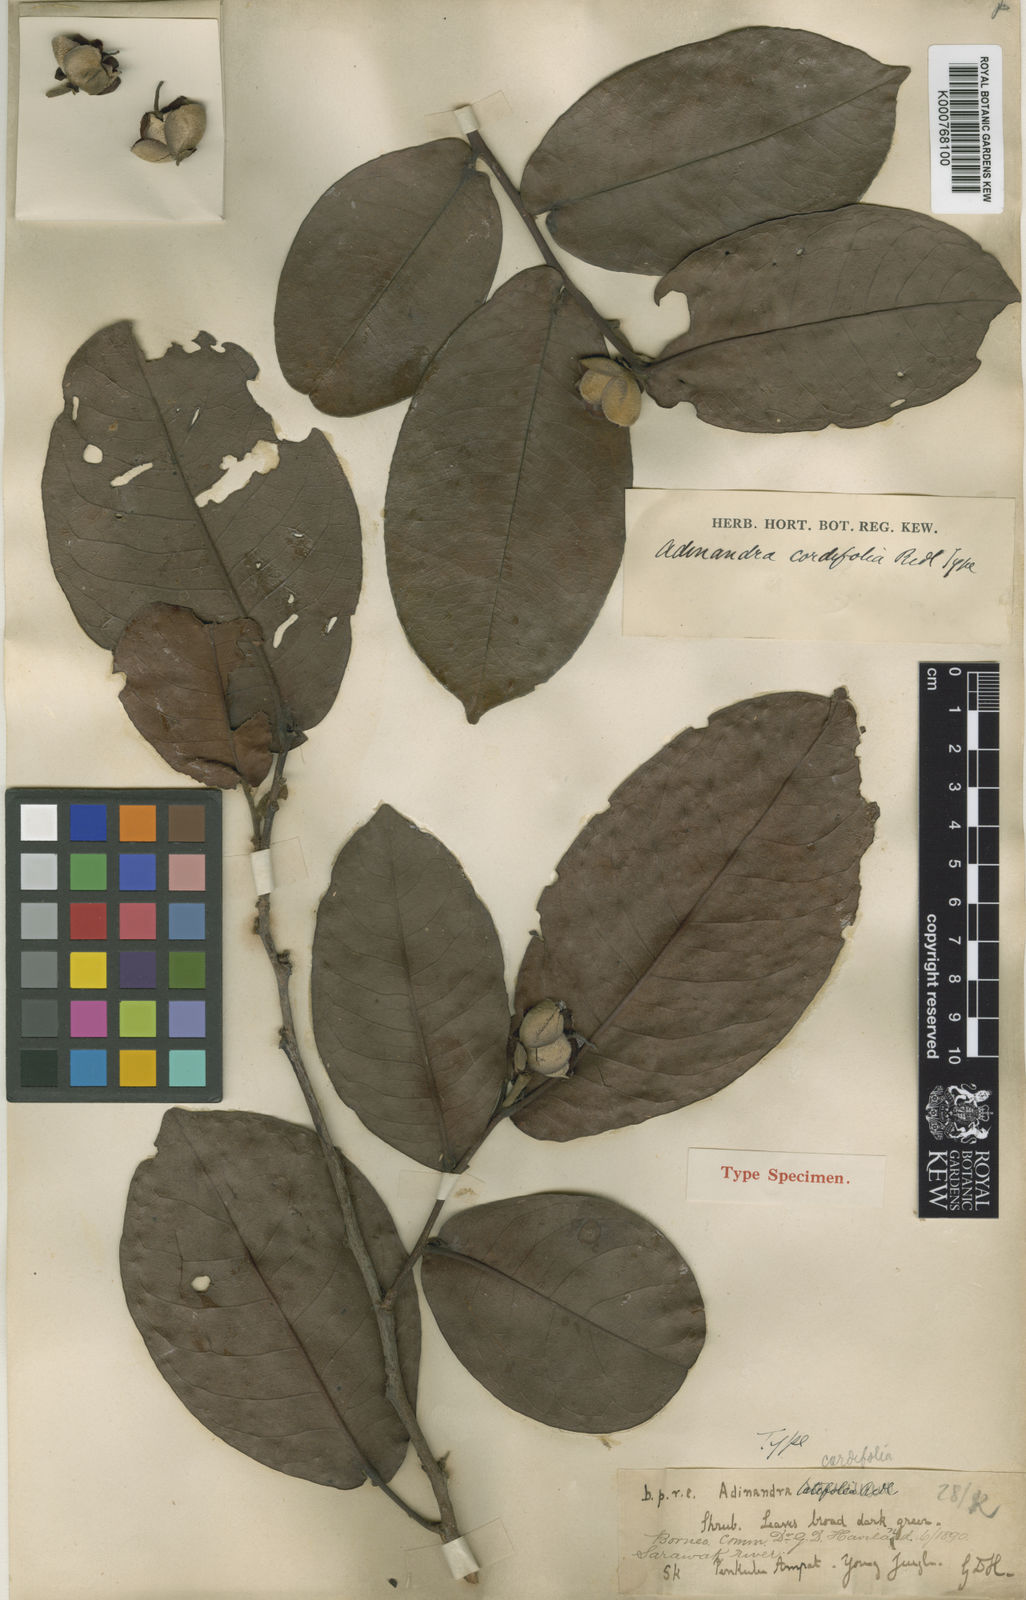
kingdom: Plantae
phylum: Tracheophyta
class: Magnoliopsida
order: Ericales
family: Pentaphylacaceae
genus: Adinandra
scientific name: Adinandra cordifolia
